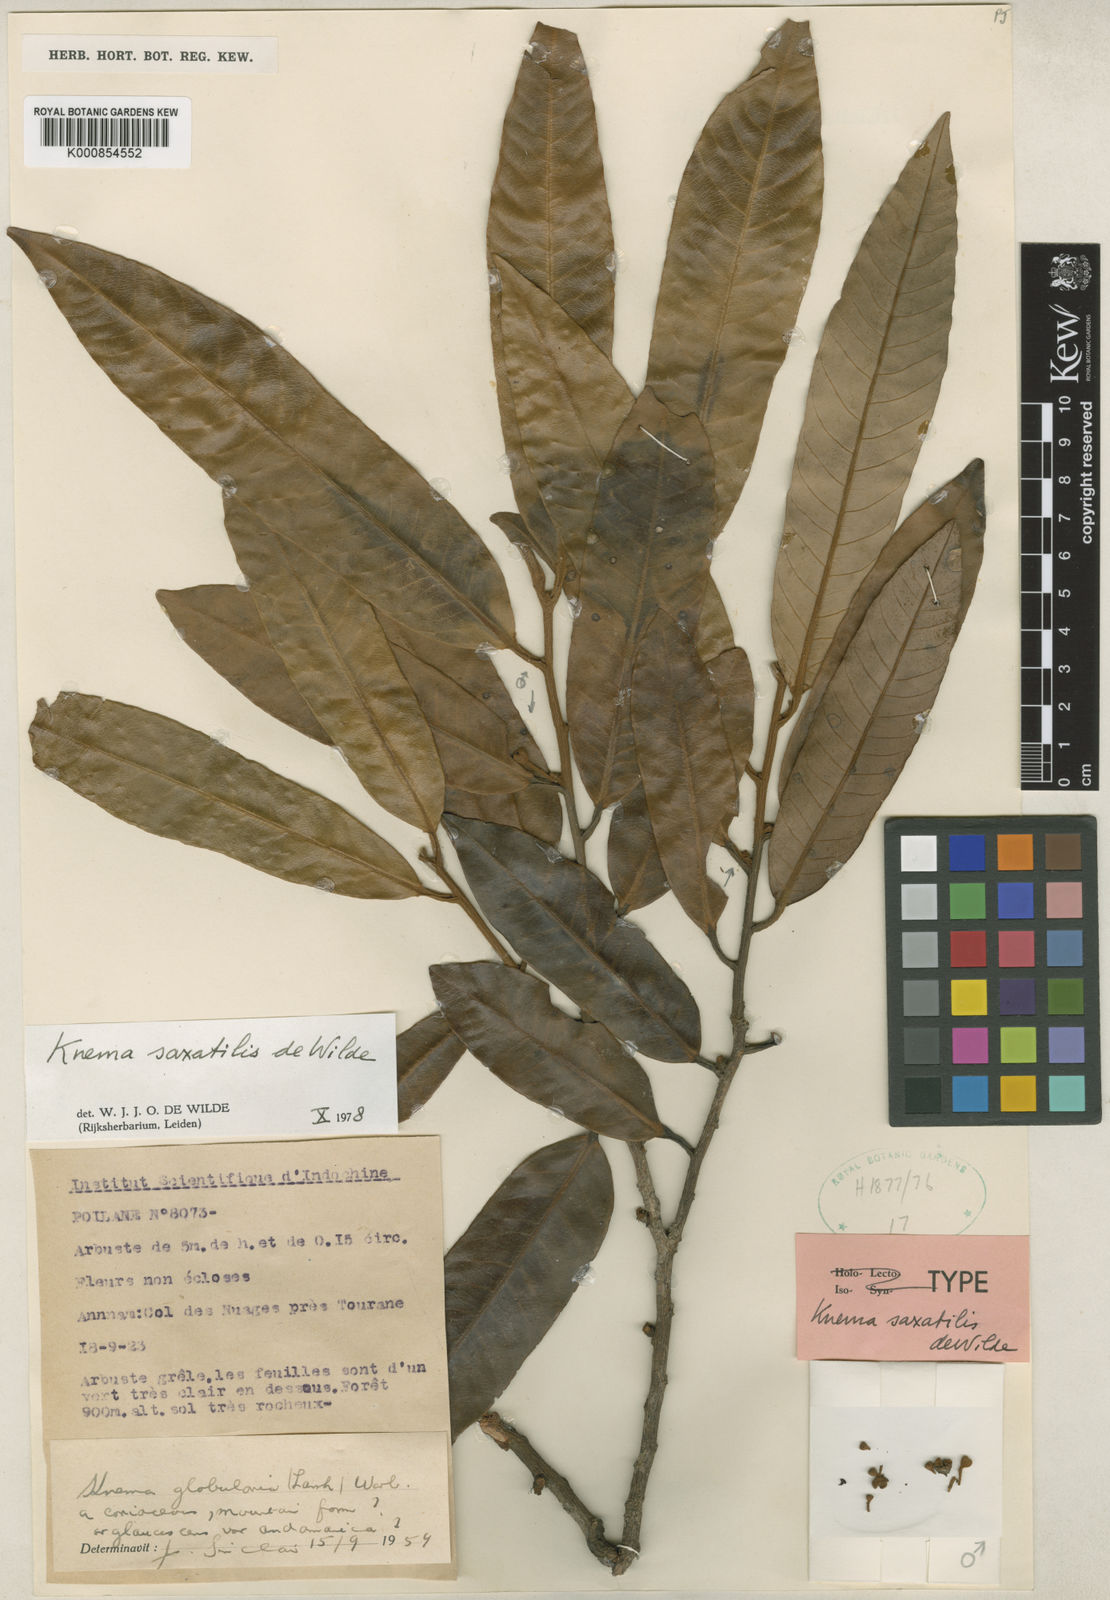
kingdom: Plantae
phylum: Tracheophyta
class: Magnoliopsida
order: Magnoliales
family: Myristicaceae
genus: Knema
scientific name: Knema saxatilis
